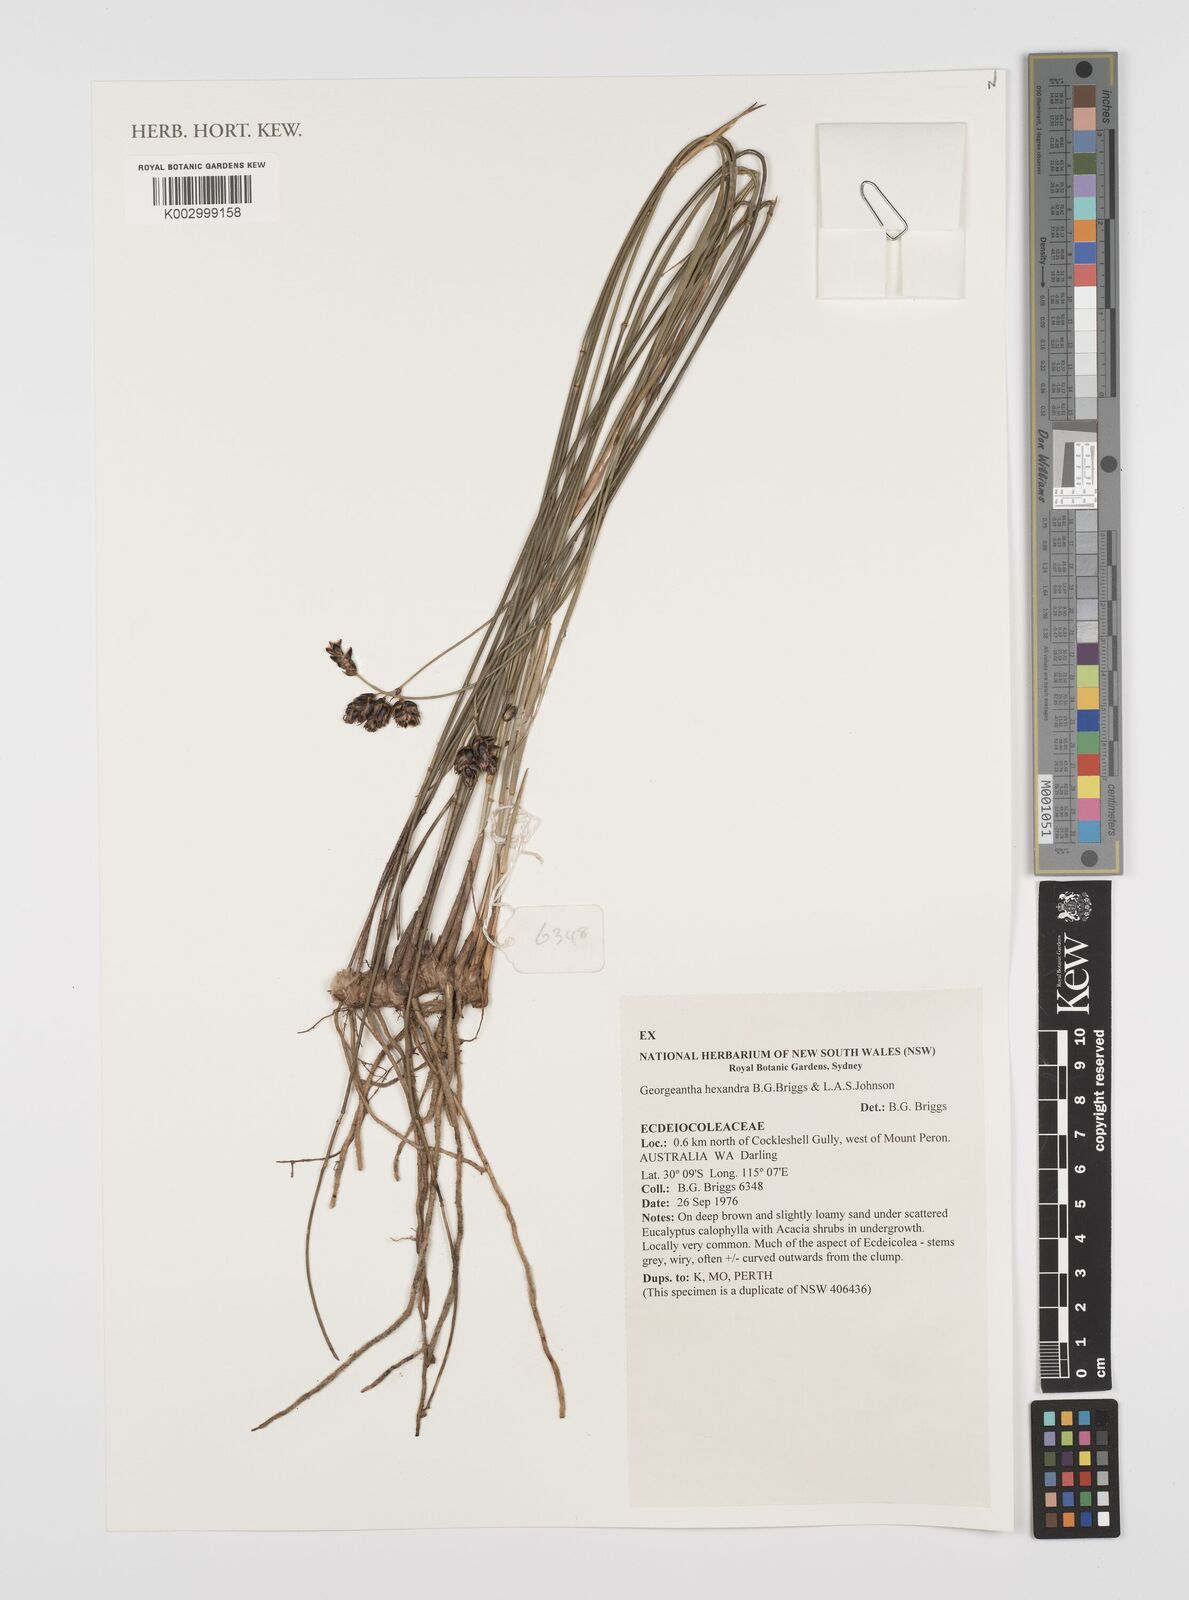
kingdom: Plantae
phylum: Tracheophyta
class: Liliopsida
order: Poales
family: Ecdeiocoleaceae
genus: Georgeantha
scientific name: Georgeantha hexandra
